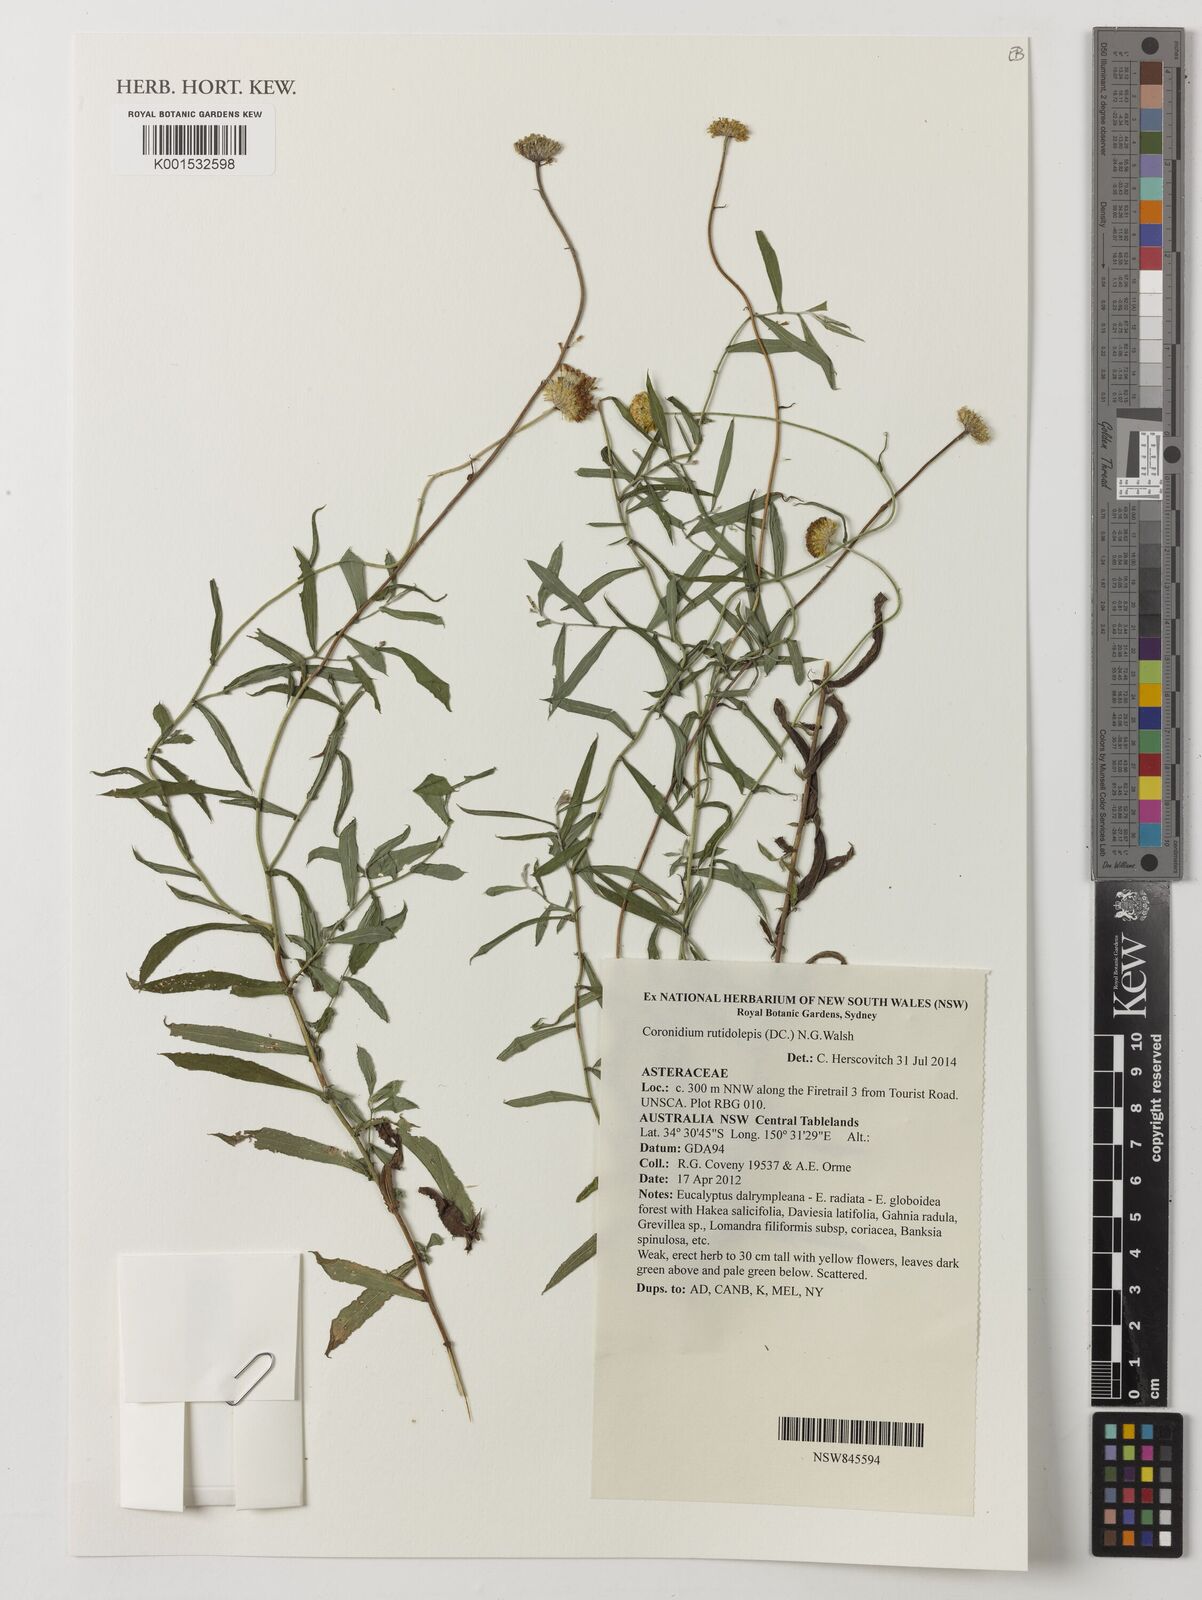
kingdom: Plantae
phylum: Tracheophyta
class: Magnoliopsida
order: Asterales
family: Asteraceae
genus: Coronidium
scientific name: Coronidium rutidolepis
